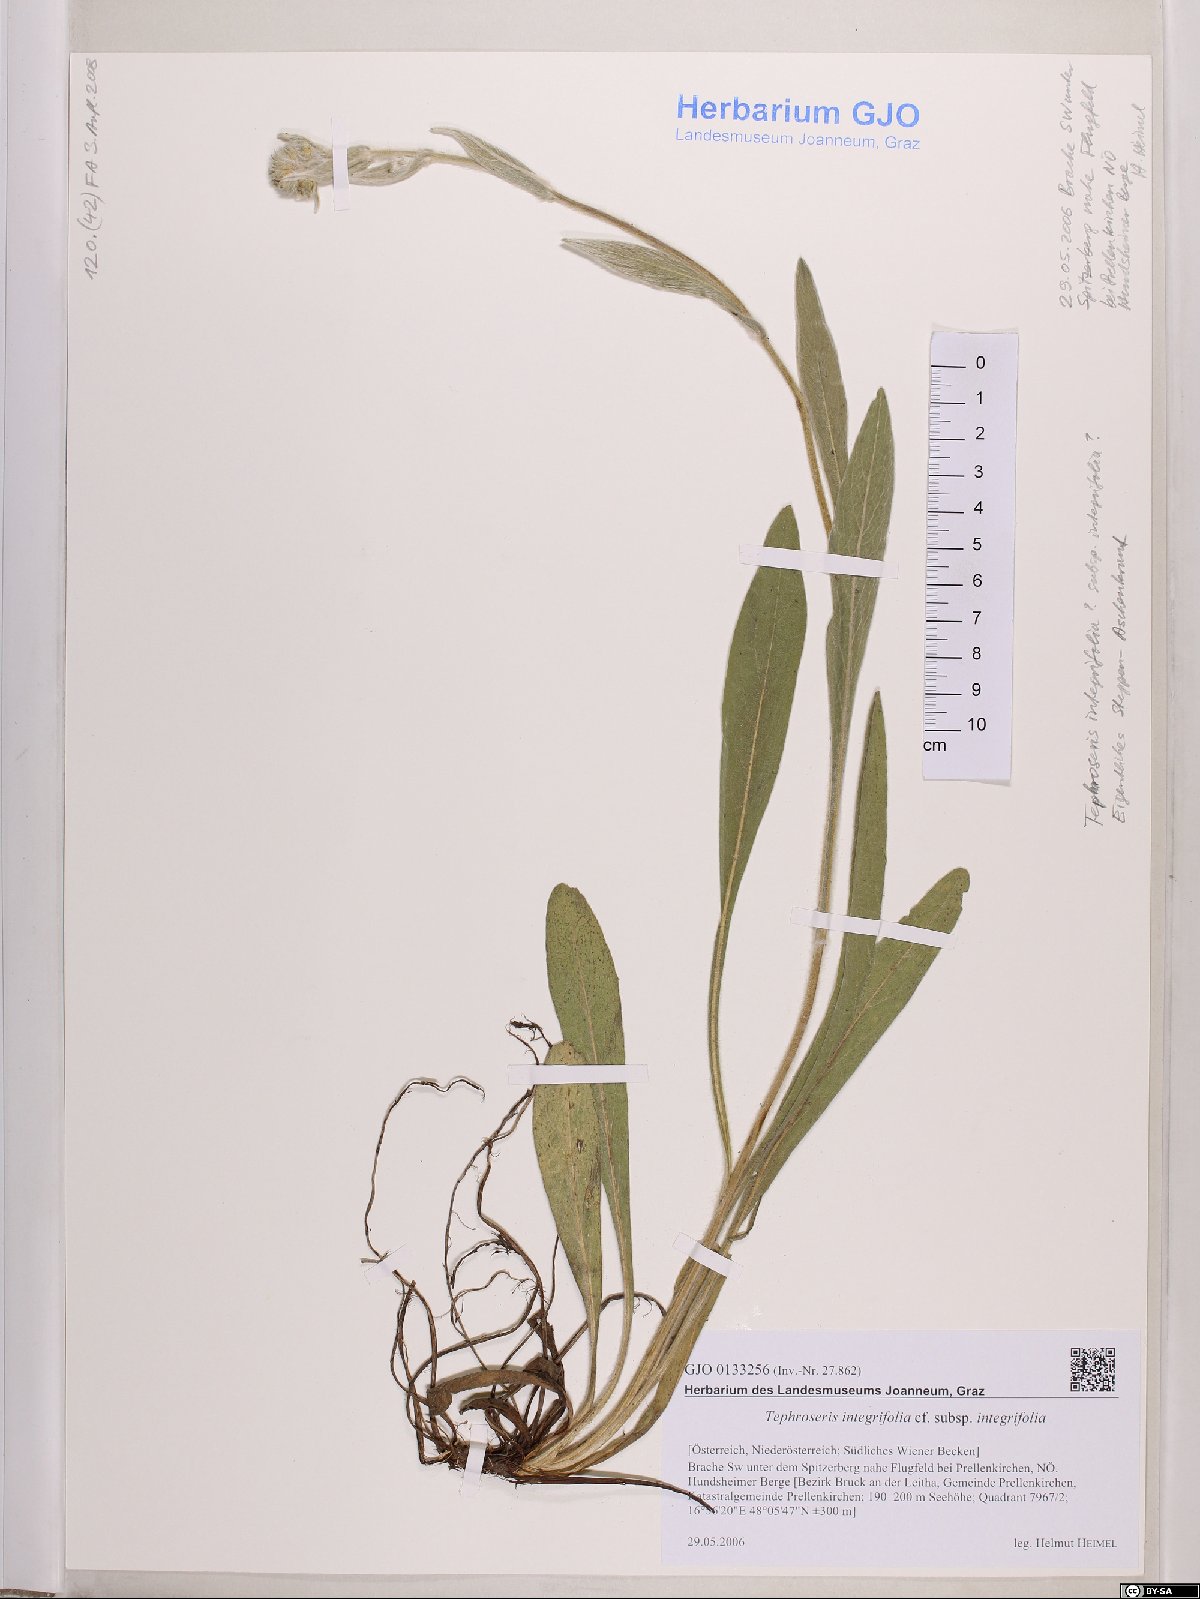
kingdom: Plantae
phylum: Tracheophyta
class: Magnoliopsida
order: Asterales
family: Asteraceae
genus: Tephroseris
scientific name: Tephroseris integrifolia
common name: Field fleawort
